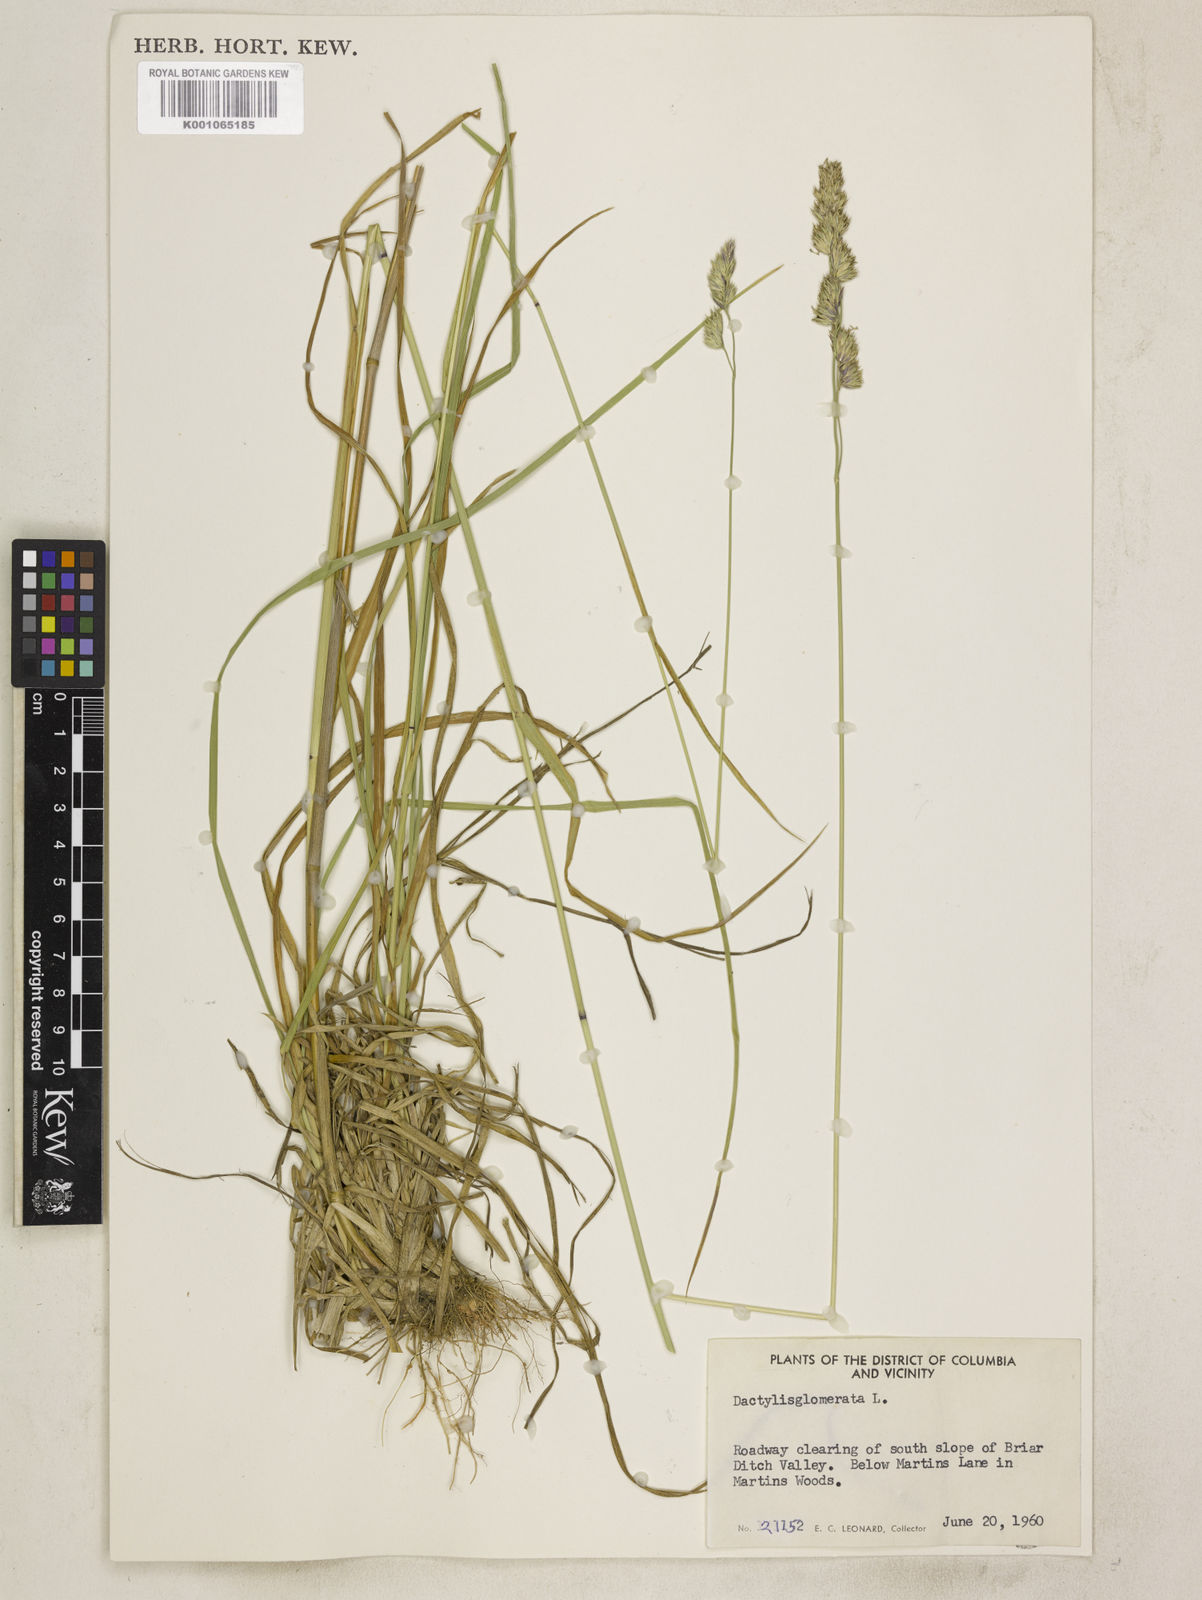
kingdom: Plantae
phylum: Tracheophyta
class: Liliopsida
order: Poales
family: Poaceae
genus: Dactylis
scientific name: Dactylis glomerata
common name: Orchardgrass
